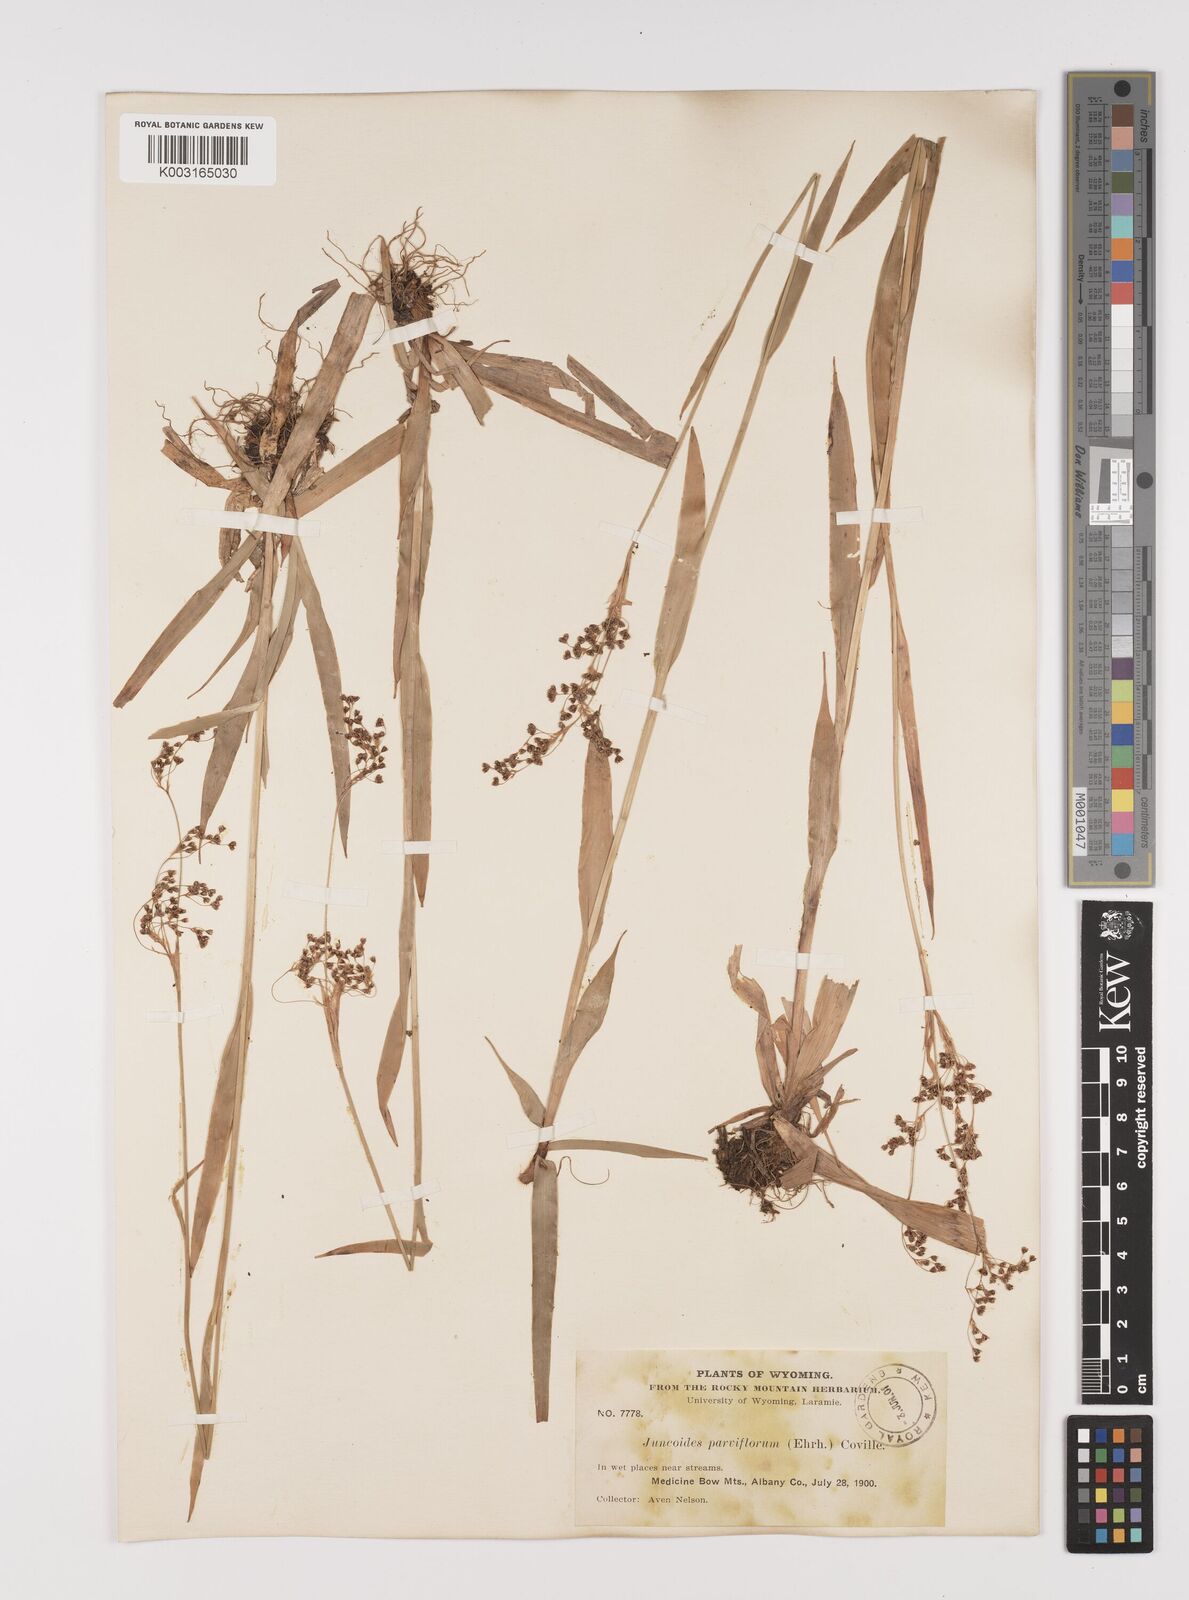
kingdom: Plantae
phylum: Tracheophyta
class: Liliopsida
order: Poales
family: Juncaceae
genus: Luzula
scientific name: Luzula parviflora
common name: Millet woodrush
